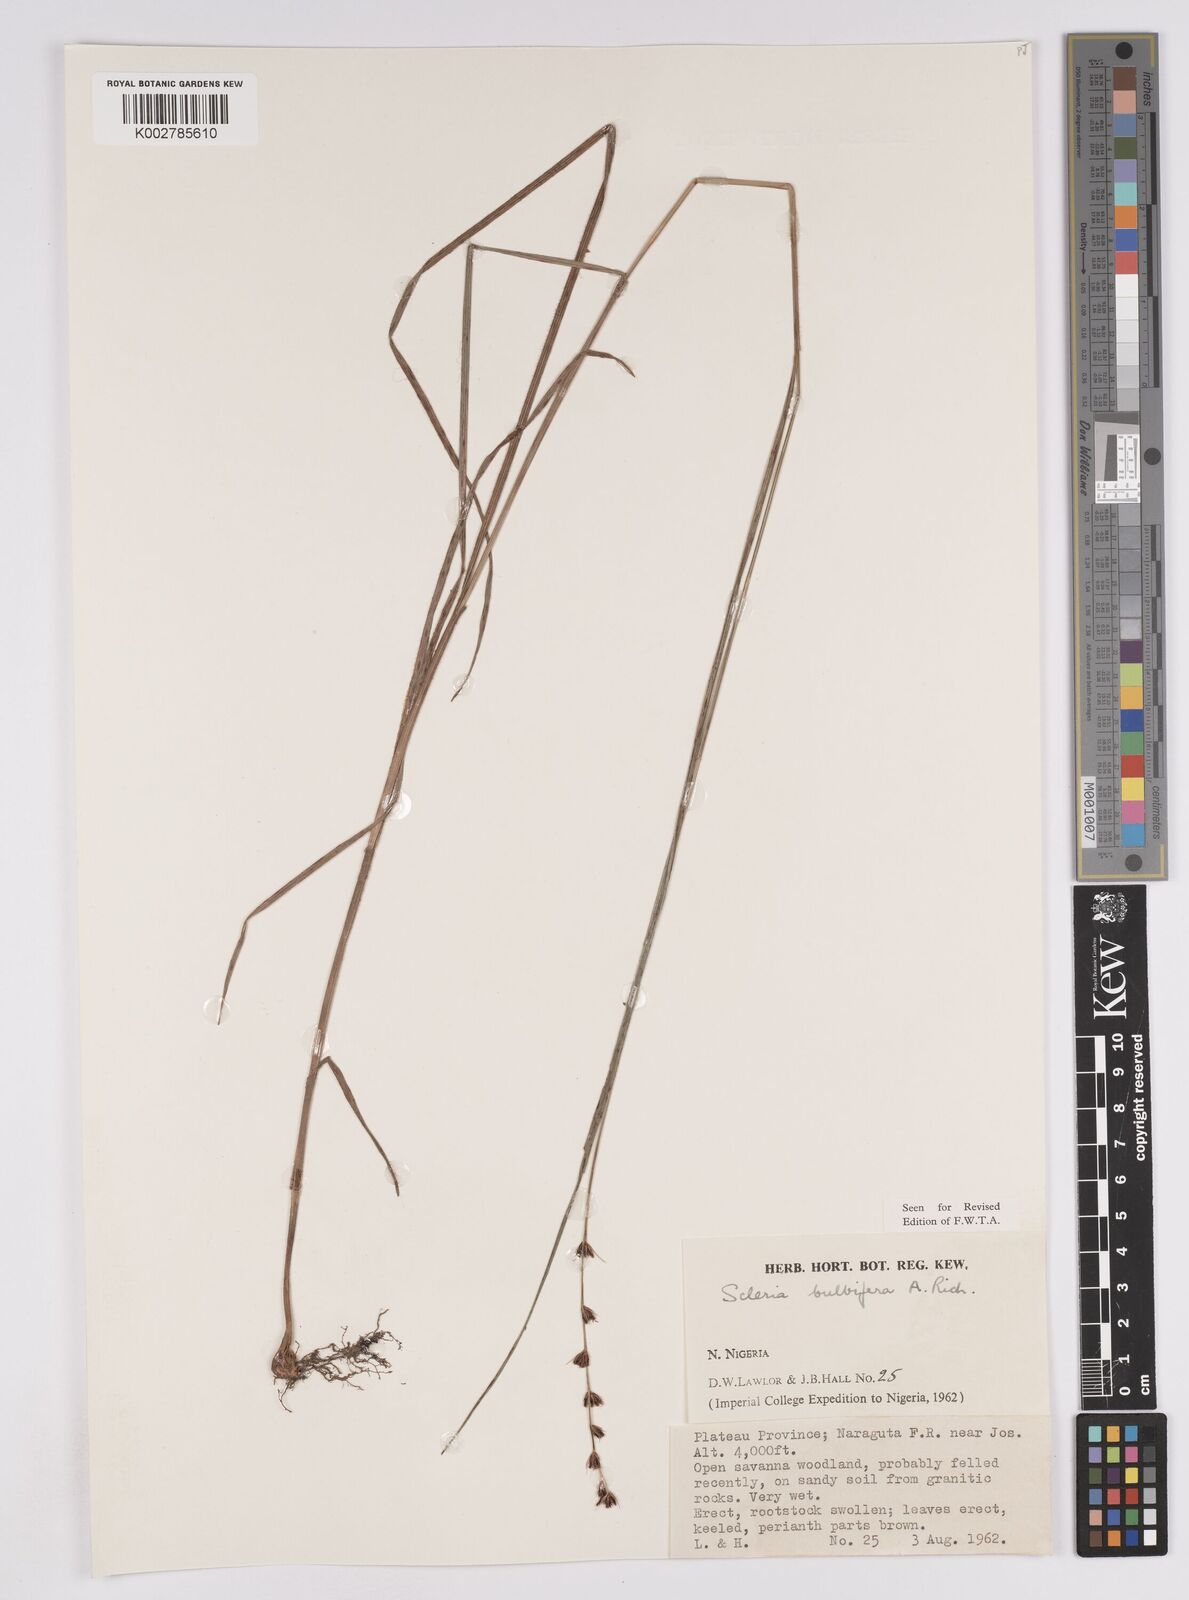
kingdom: Plantae
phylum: Tracheophyta
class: Liliopsida
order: Poales
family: Cyperaceae
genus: Scleria
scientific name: Scleria bulbifera
